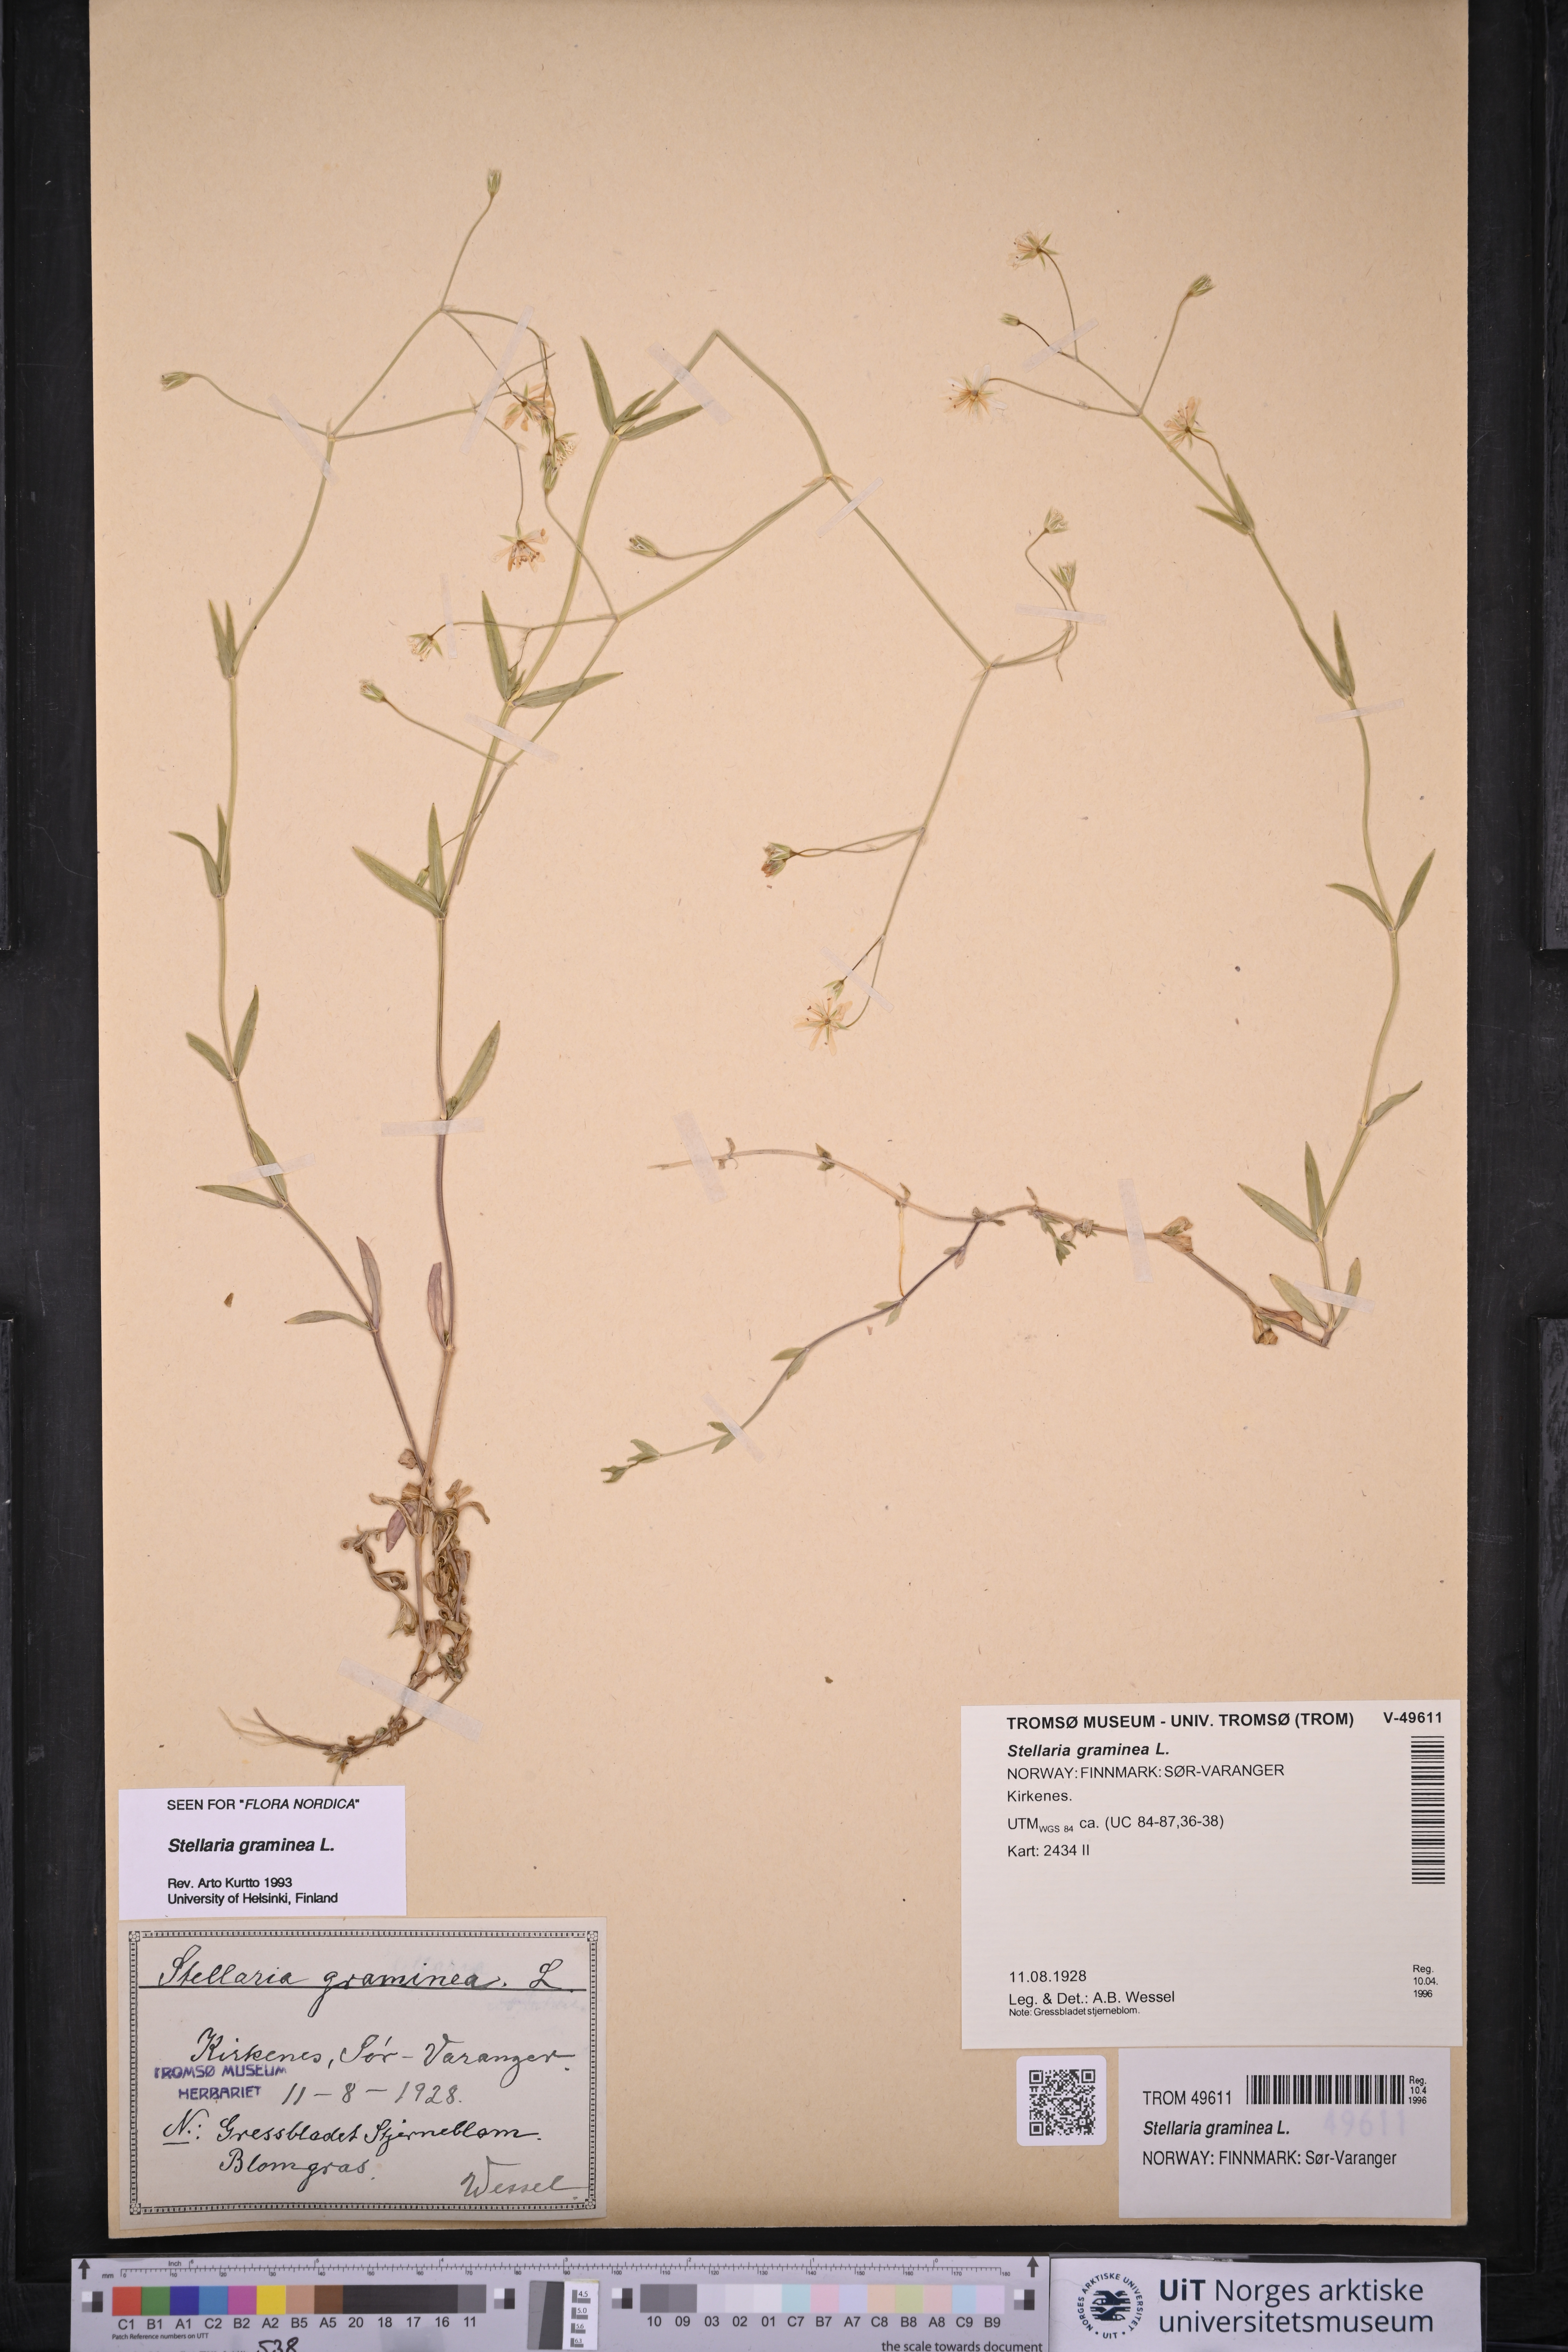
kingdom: Plantae
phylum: Tracheophyta
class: Magnoliopsida
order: Caryophyllales
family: Caryophyllaceae
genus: Stellaria
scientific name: Stellaria graminea
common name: Grass-like starwort
